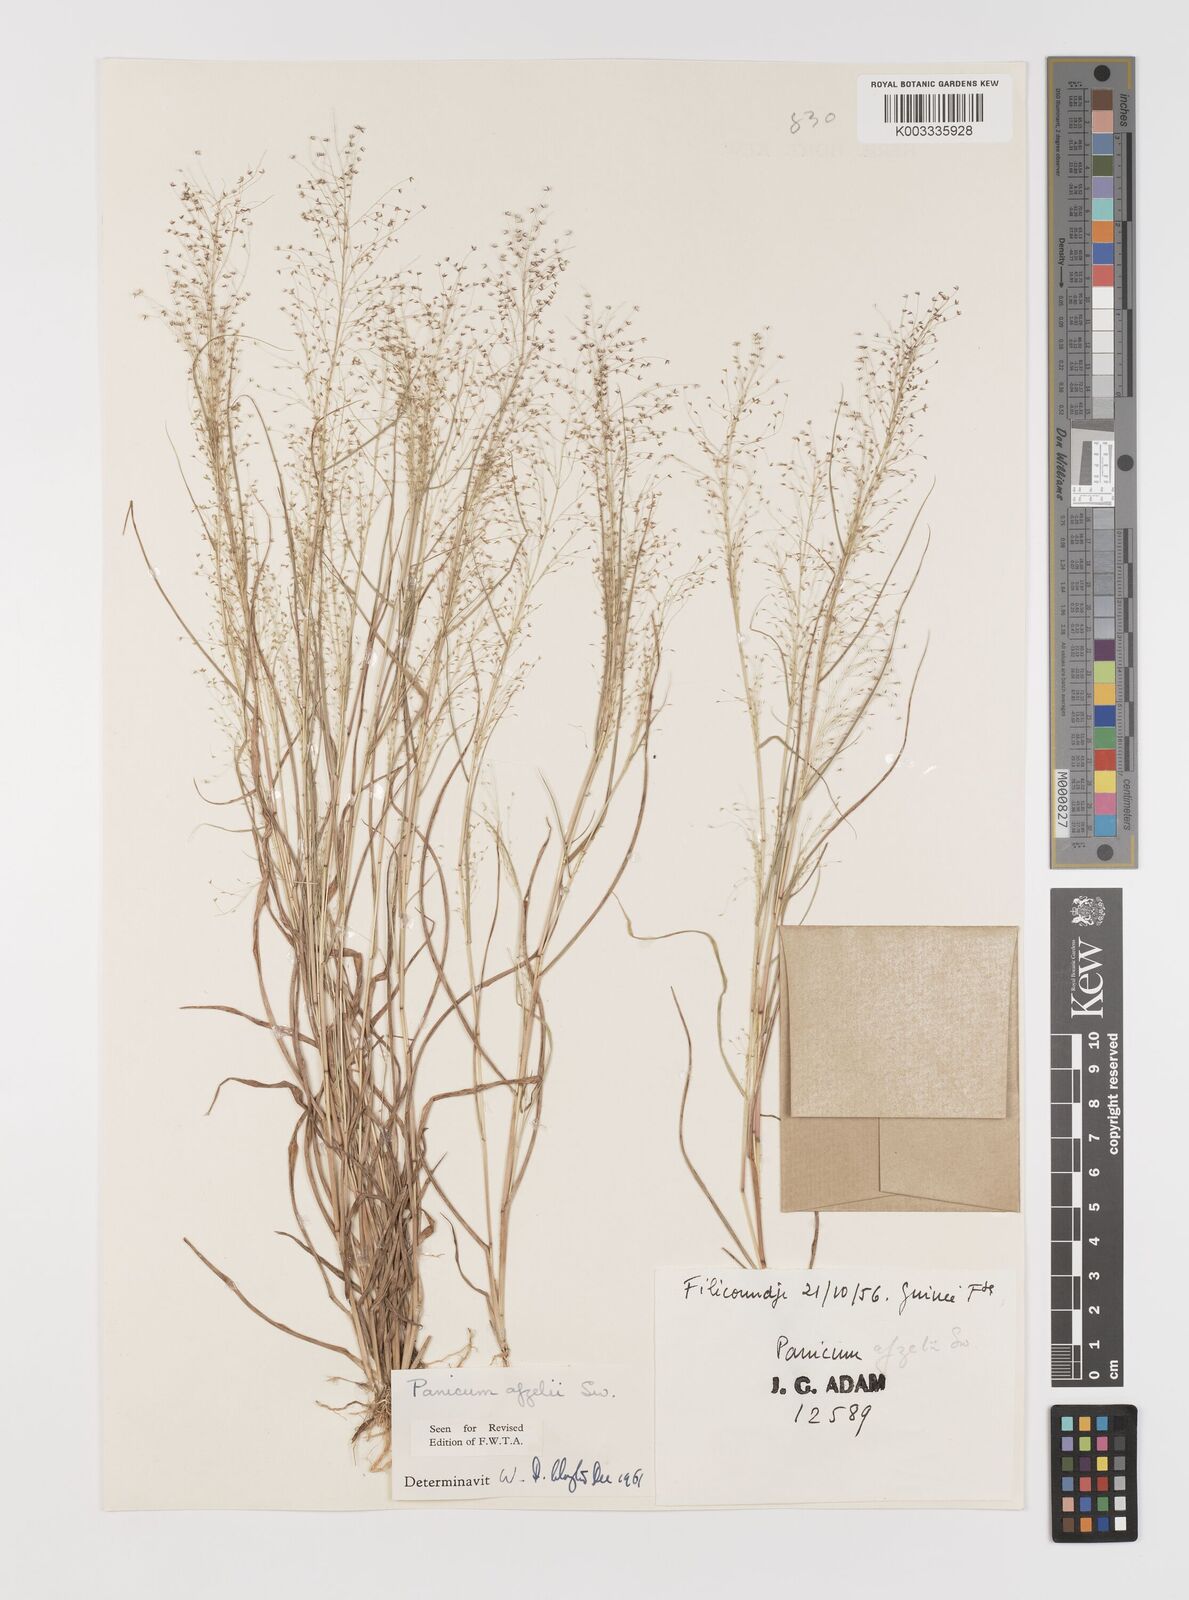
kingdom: Plantae
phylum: Tracheophyta
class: Liliopsida
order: Poales
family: Poaceae
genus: Panicum
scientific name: Panicum afzelii
